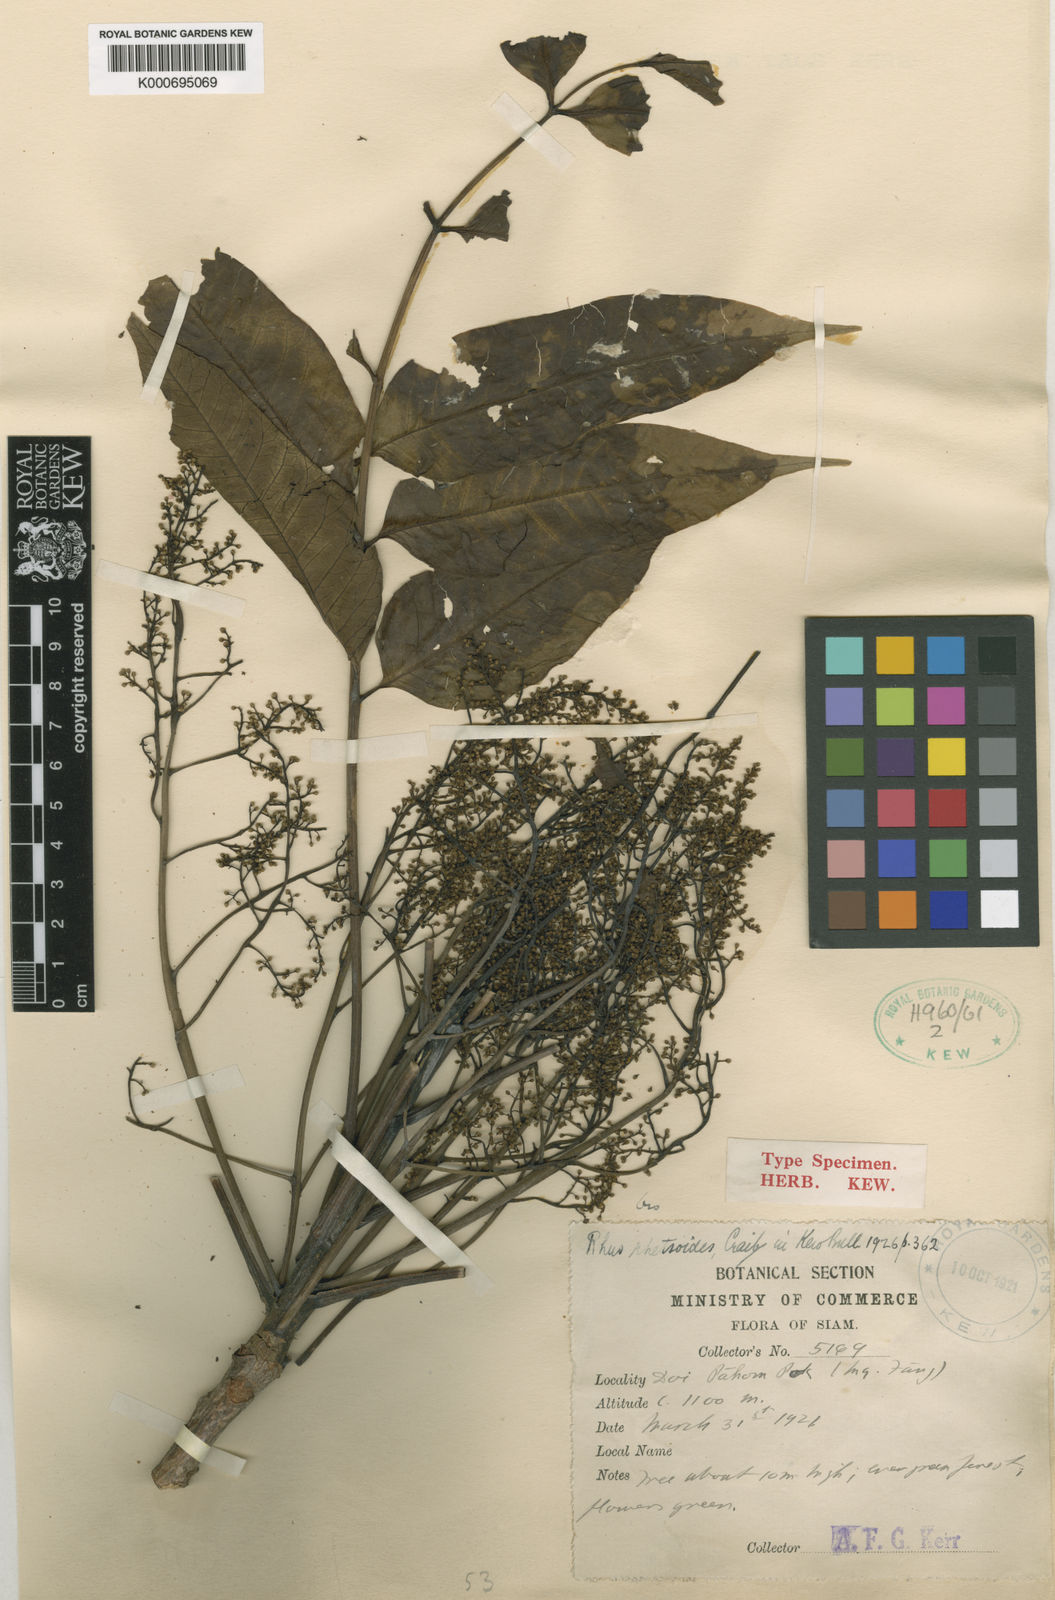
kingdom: Plantae
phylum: Tracheophyta
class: Magnoliopsida
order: Sapindales
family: Anacardiaceae
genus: Toxicodendron
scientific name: Toxicodendron rhetsoides
